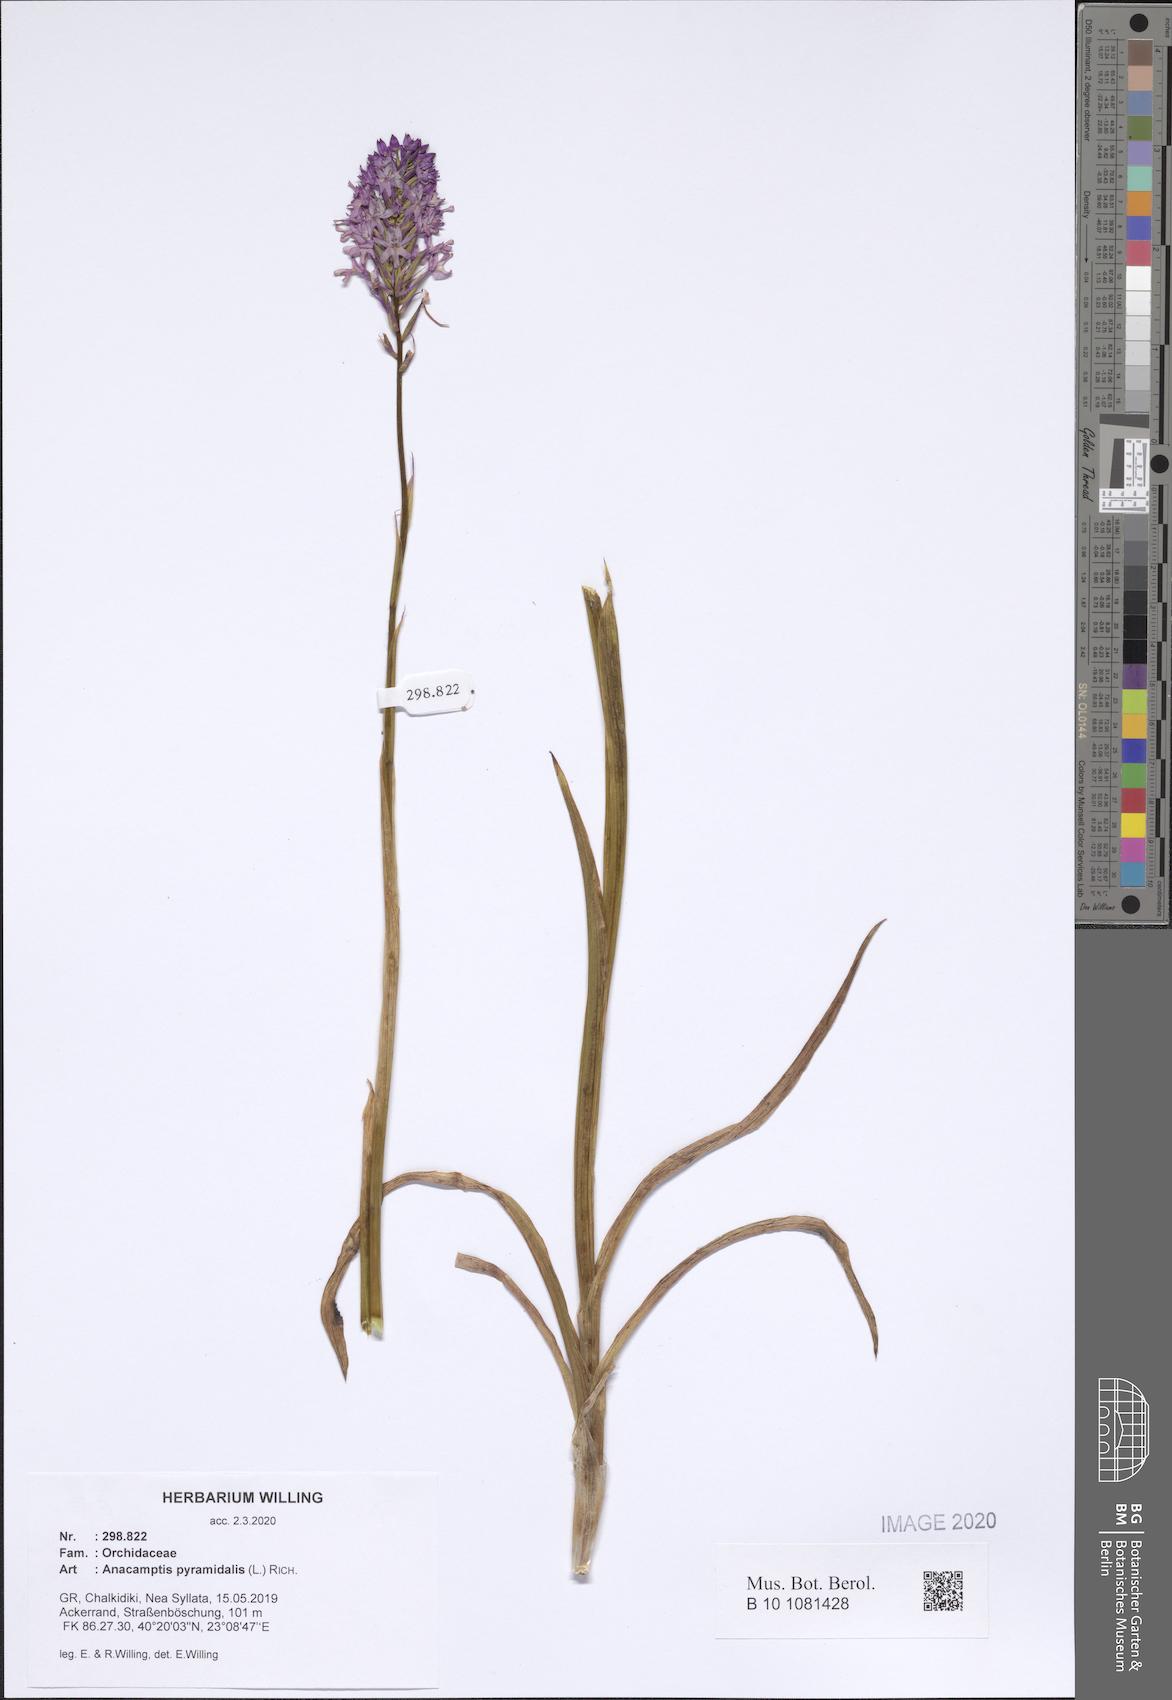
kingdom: Plantae
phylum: Tracheophyta
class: Liliopsida
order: Asparagales
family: Orchidaceae
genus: Anacamptis
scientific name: Anacamptis pyramidalis
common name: Pyramidal orchid
